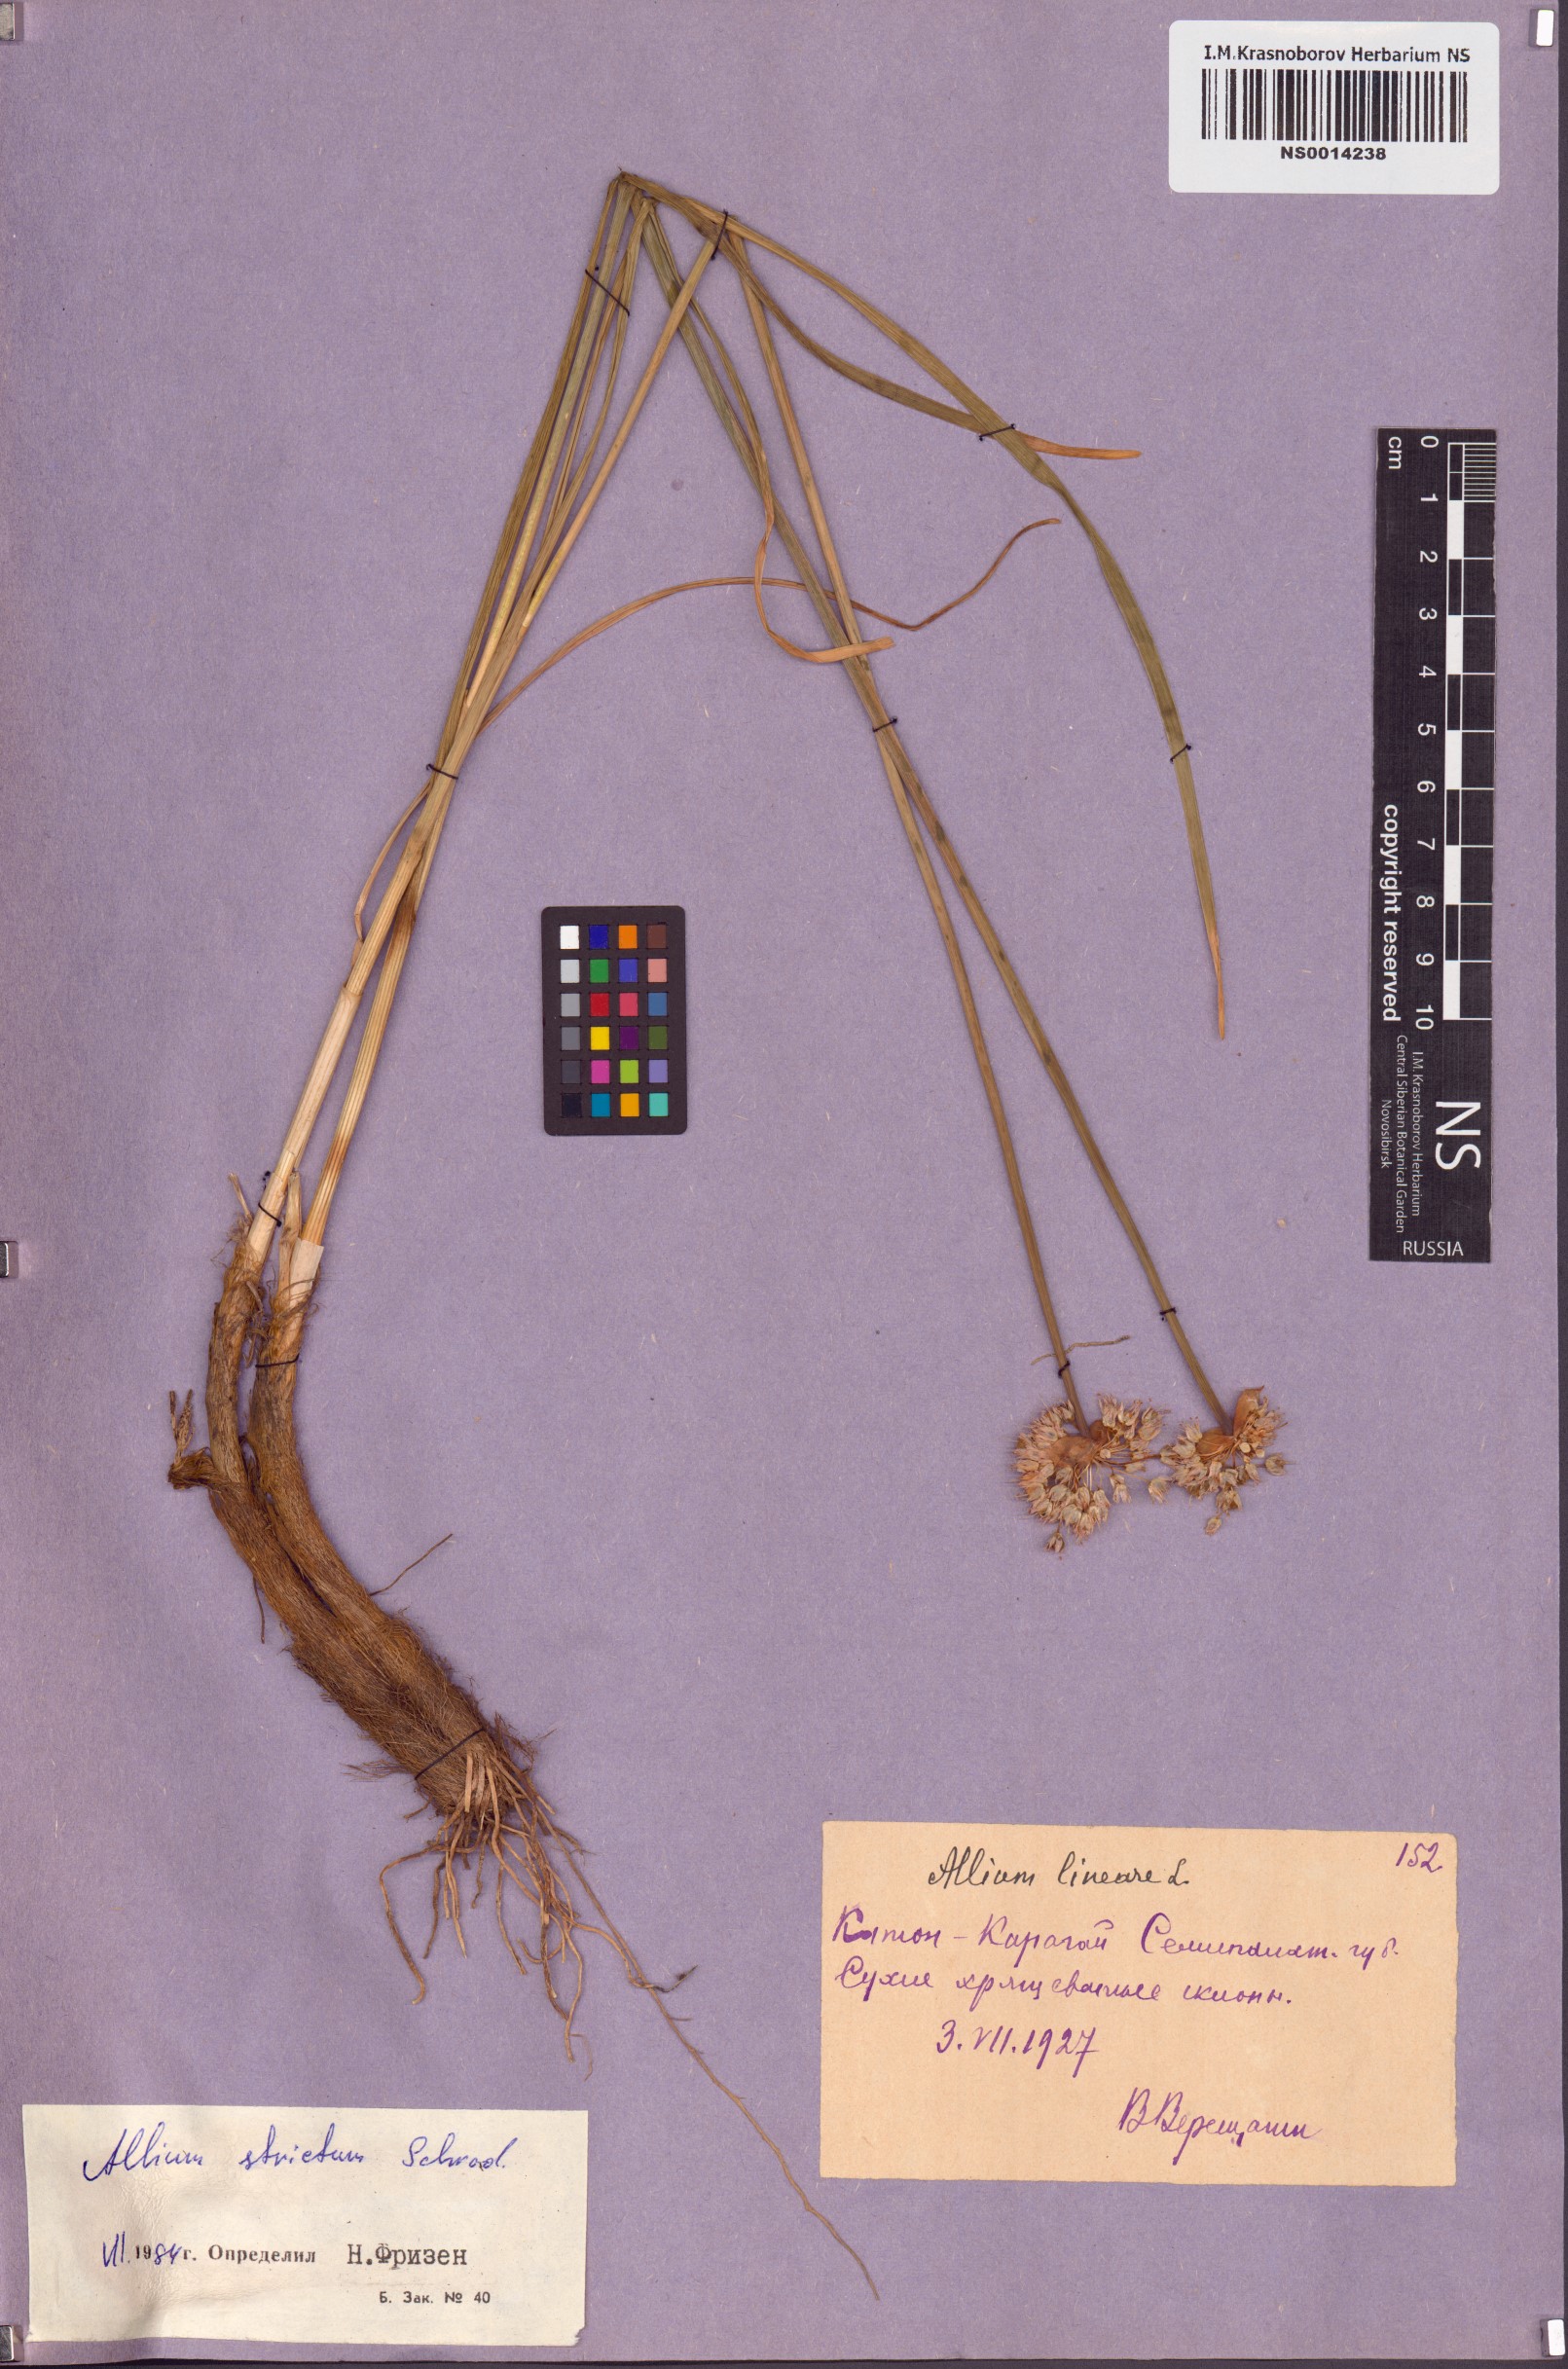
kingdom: Plantae
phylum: Tracheophyta
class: Liliopsida
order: Asparagales
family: Amaryllidaceae
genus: Allium
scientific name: Allium strictum
